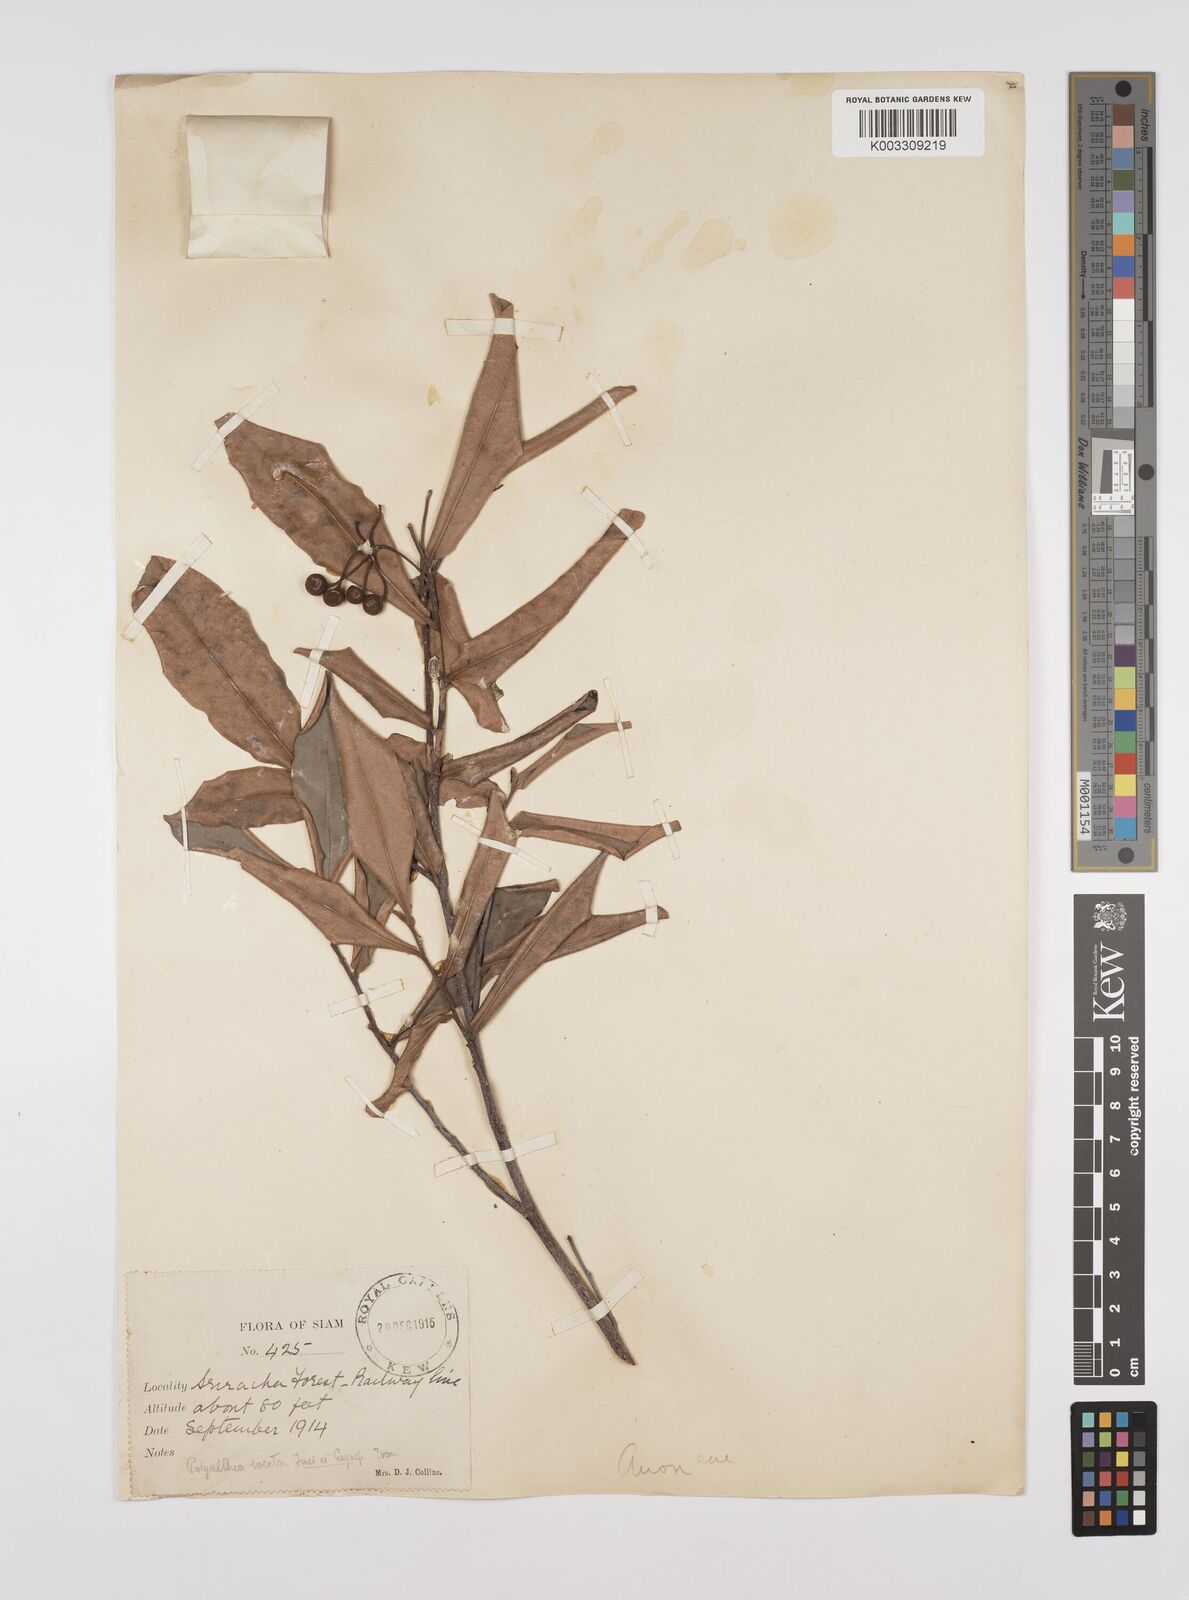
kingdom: Plantae
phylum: Tracheophyta
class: Magnoliopsida
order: Magnoliales
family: Annonaceae
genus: Polyalthia
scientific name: Polyalthia evecta
